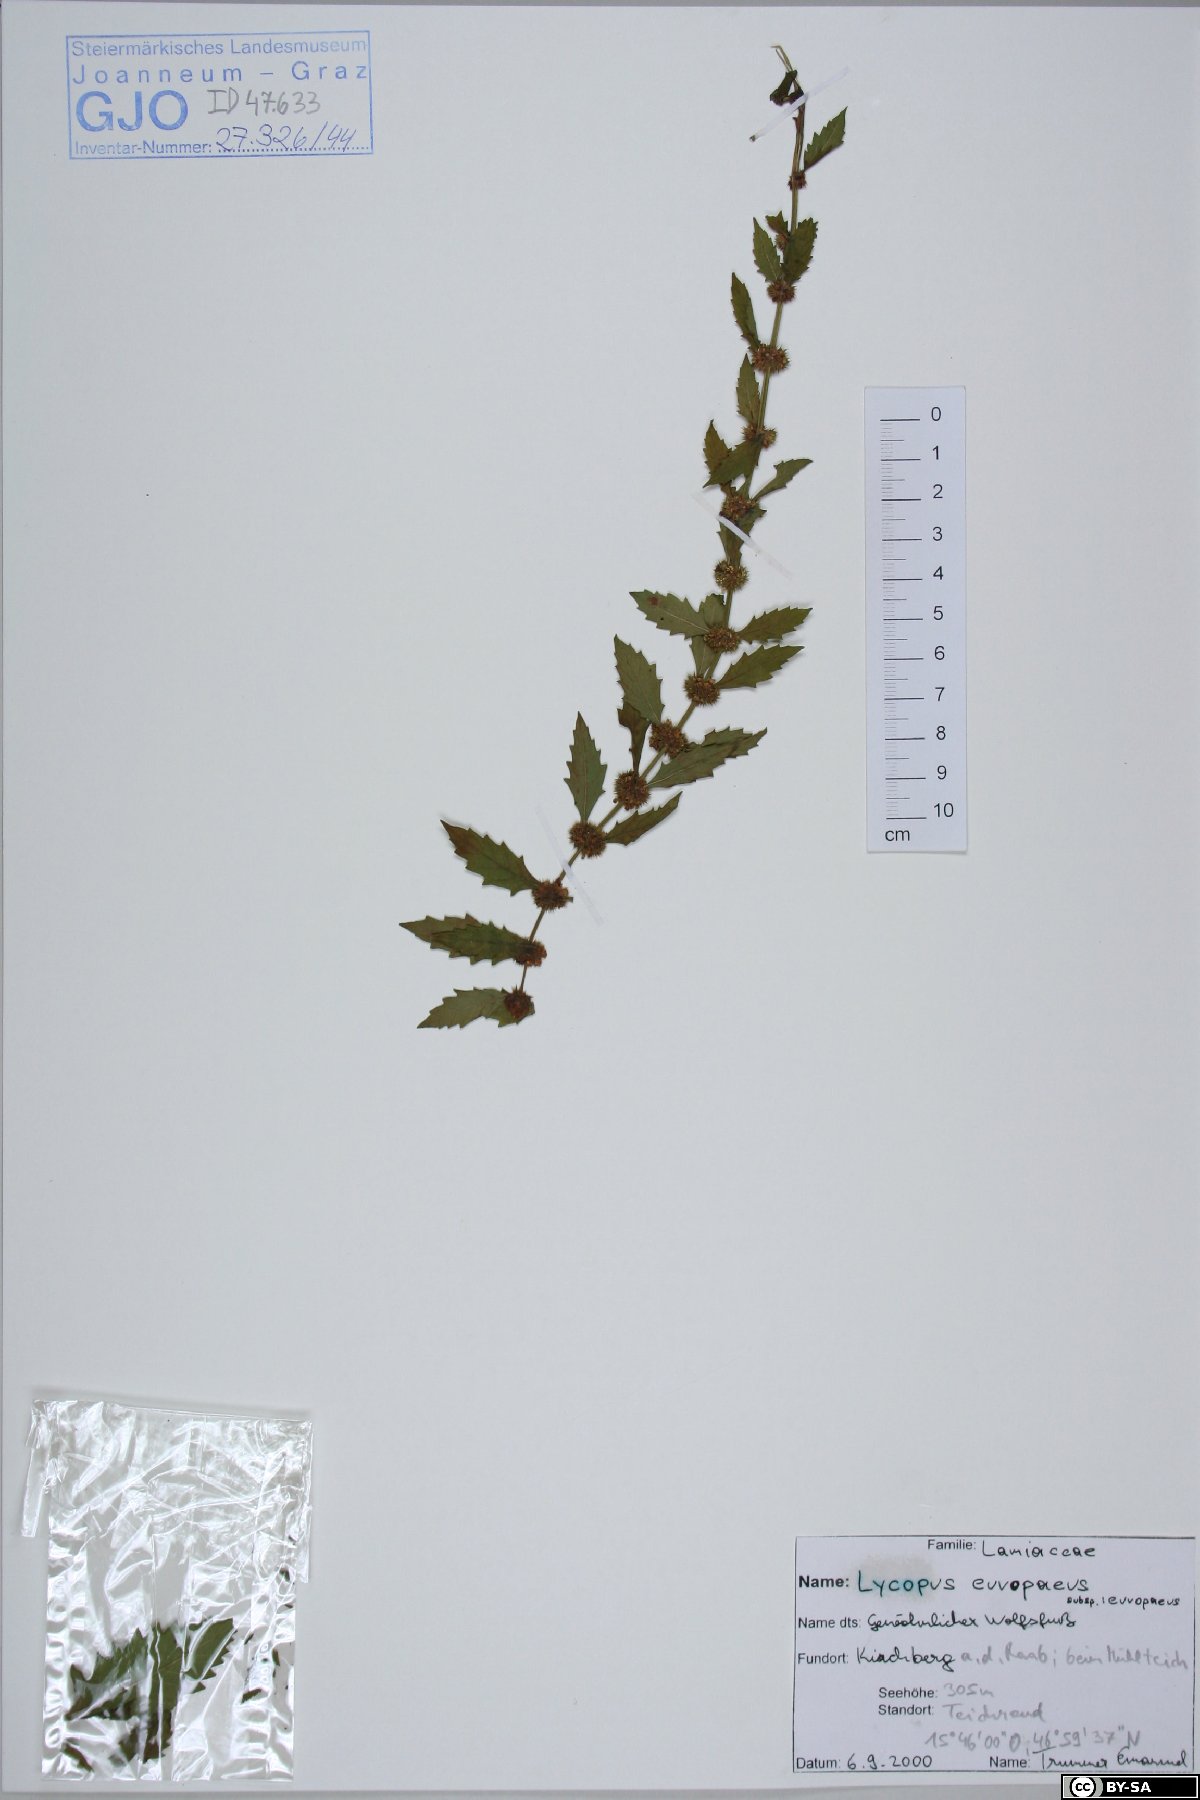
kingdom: Plantae
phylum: Tracheophyta
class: Magnoliopsida
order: Lamiales
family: Lamiaceae
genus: Lycopus
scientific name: Lycopus europaeus
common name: European bugleweed
